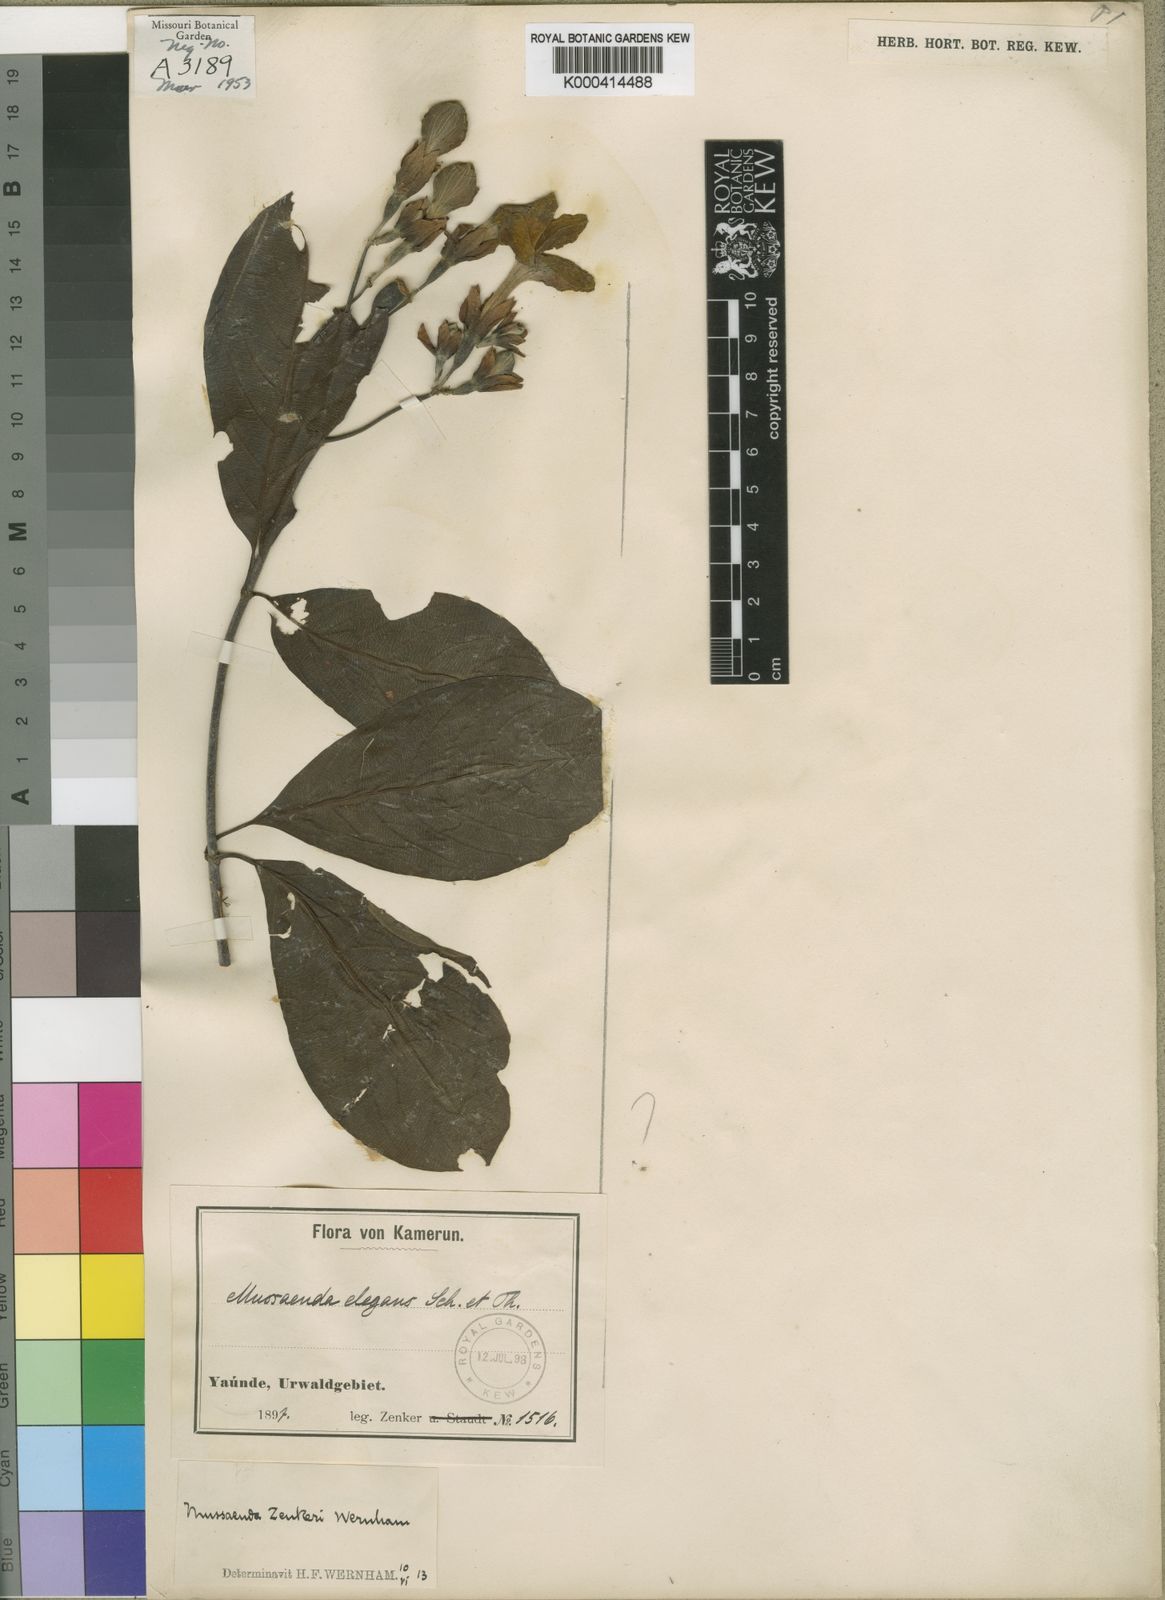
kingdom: Plantae
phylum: Tracheophyta
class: Magnoliopsida
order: Gentianales
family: Rubiaceae
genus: Mussaenda
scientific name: Mussaenda elegans
